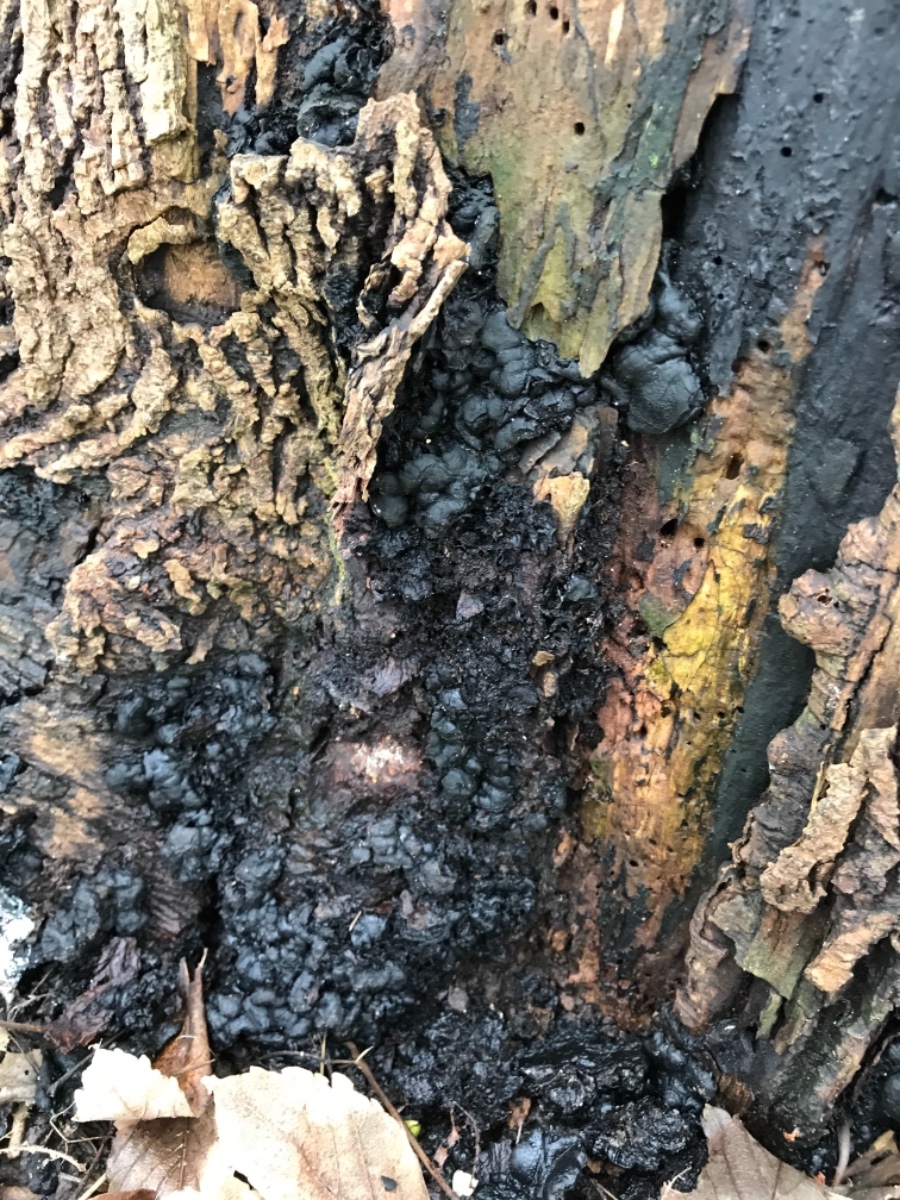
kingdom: Fungi
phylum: Ascomycota
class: Sordariomycetes
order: Xylariales
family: Xylariaceae
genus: Kretzschmaria
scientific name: Kretzschmaria deusta
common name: stor kulsvamp
